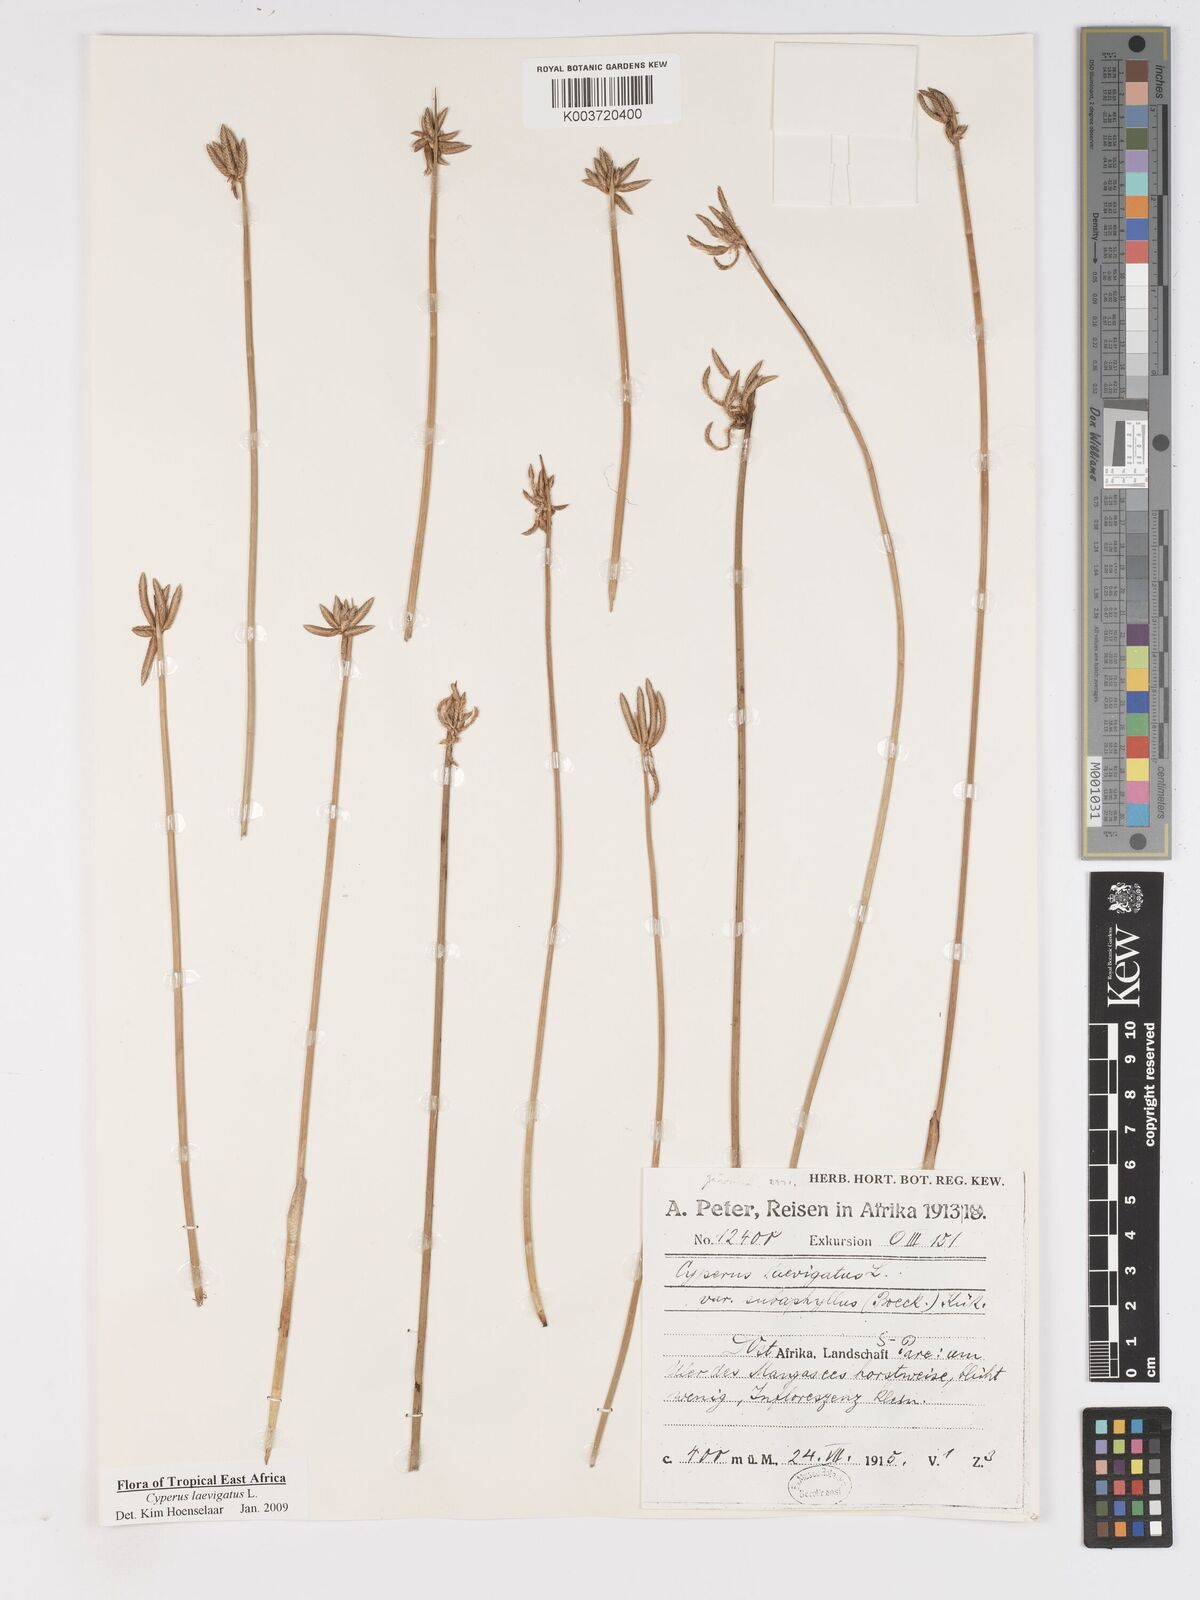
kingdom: Plantae
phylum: Tracheophyta
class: Liliopsida
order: Poales
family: Cyperaceae
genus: Cyperus
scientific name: Cyperus laevigatus
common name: Smooth flat sedge
